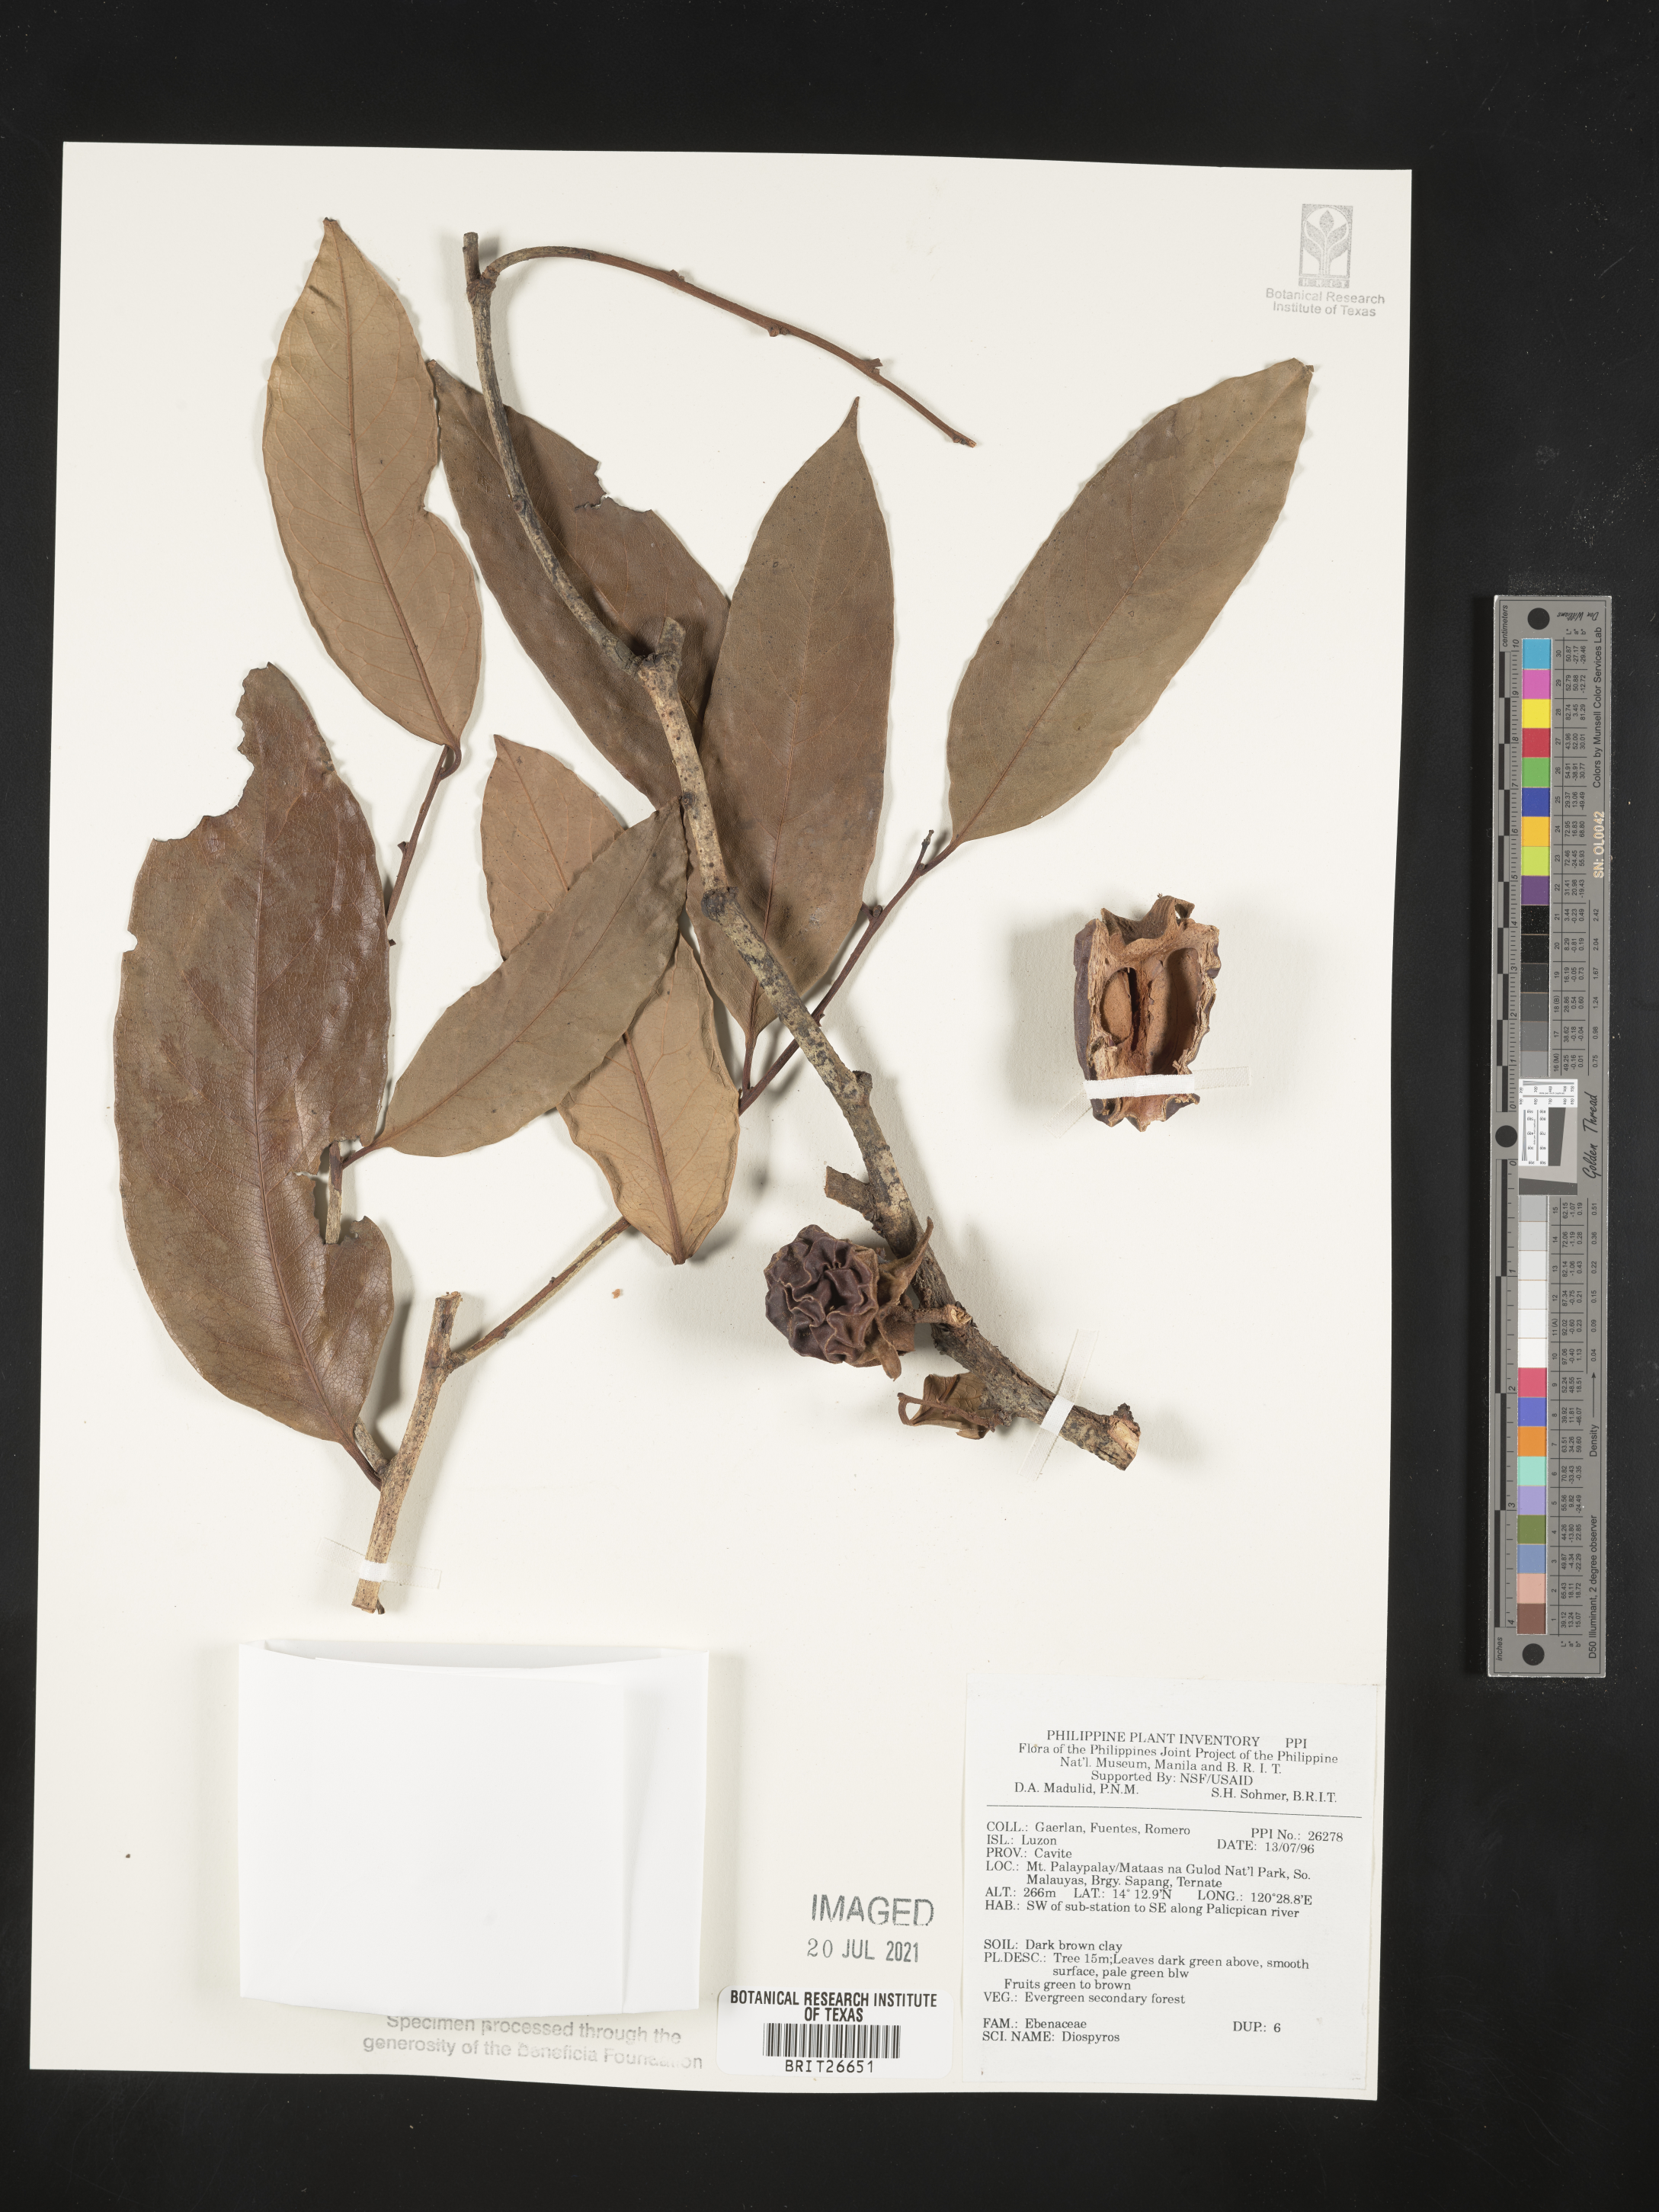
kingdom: Plantae
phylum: Tracheophyta
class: Magnoliopsida
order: Ericales
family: Ebenaceae
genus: Diospyros
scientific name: Diospyros
